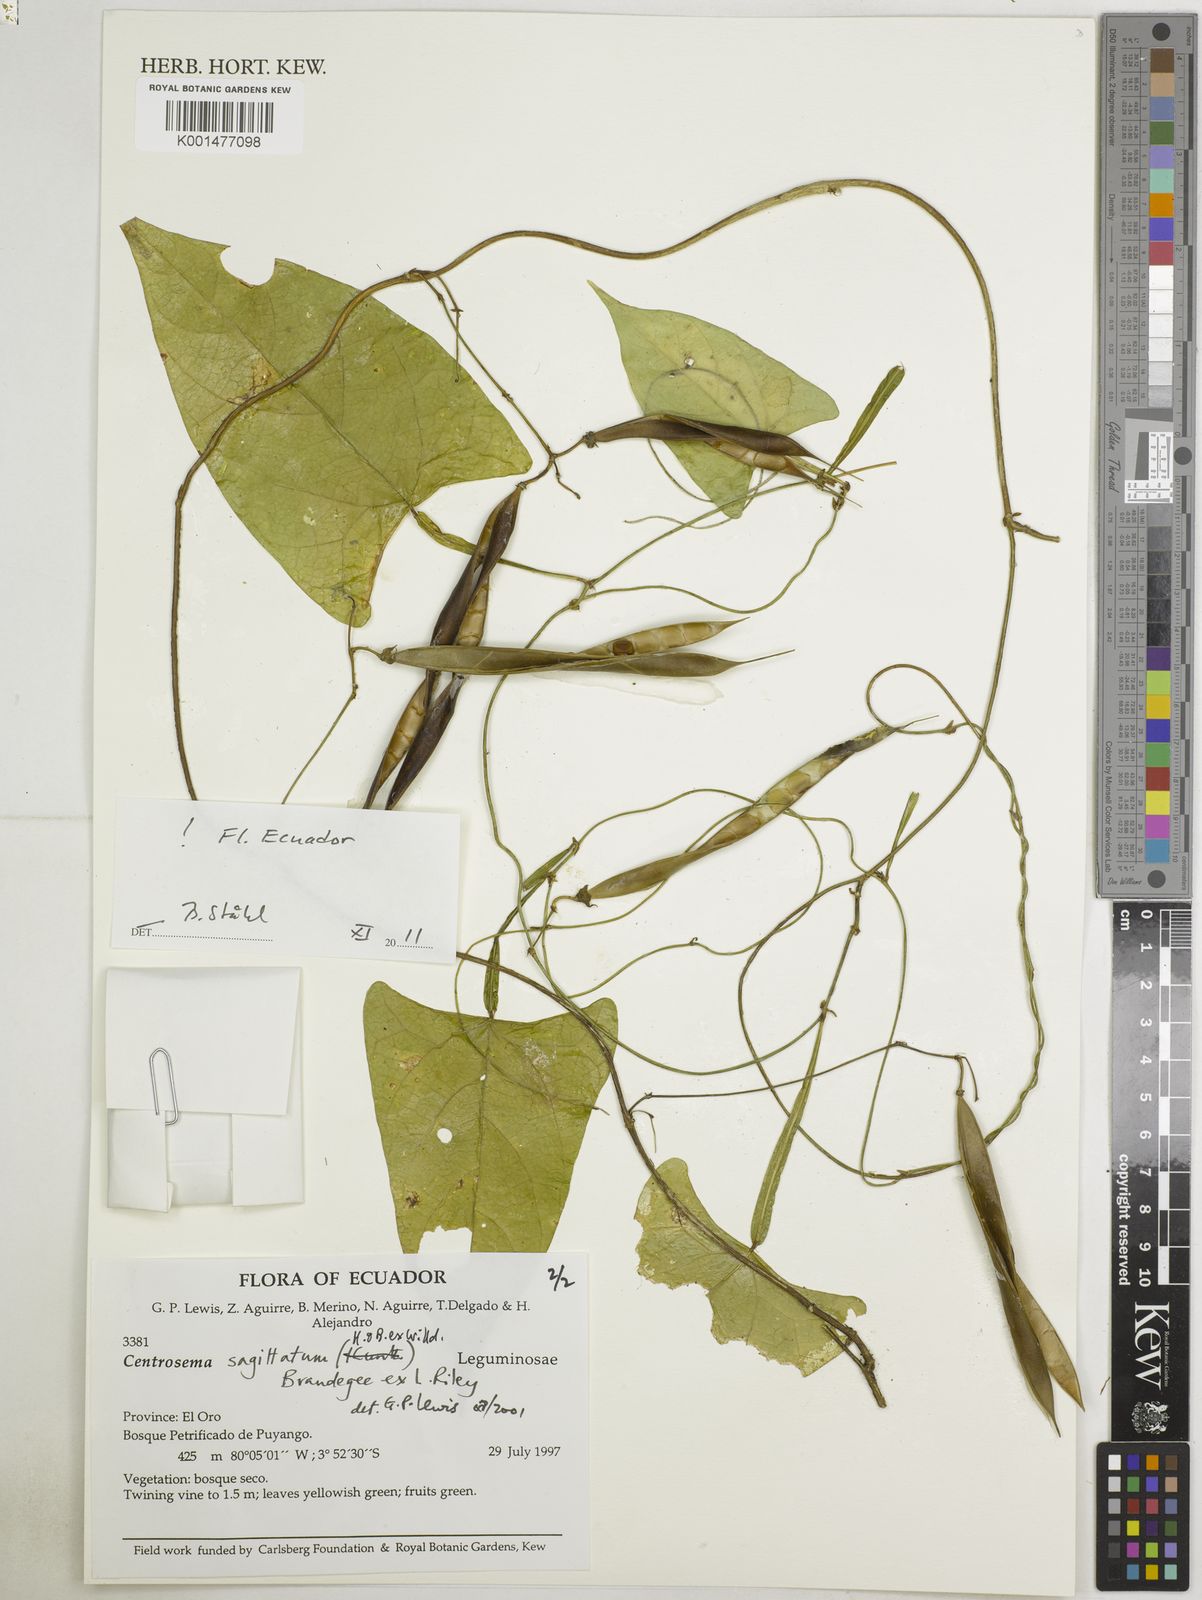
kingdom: Plantae
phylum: Tracheophyta
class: Magnoliopsida
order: Fabales
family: Fabaceae
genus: Centrosema
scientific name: Centrosema sagittatum
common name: Arrowleaf butterfly pea
